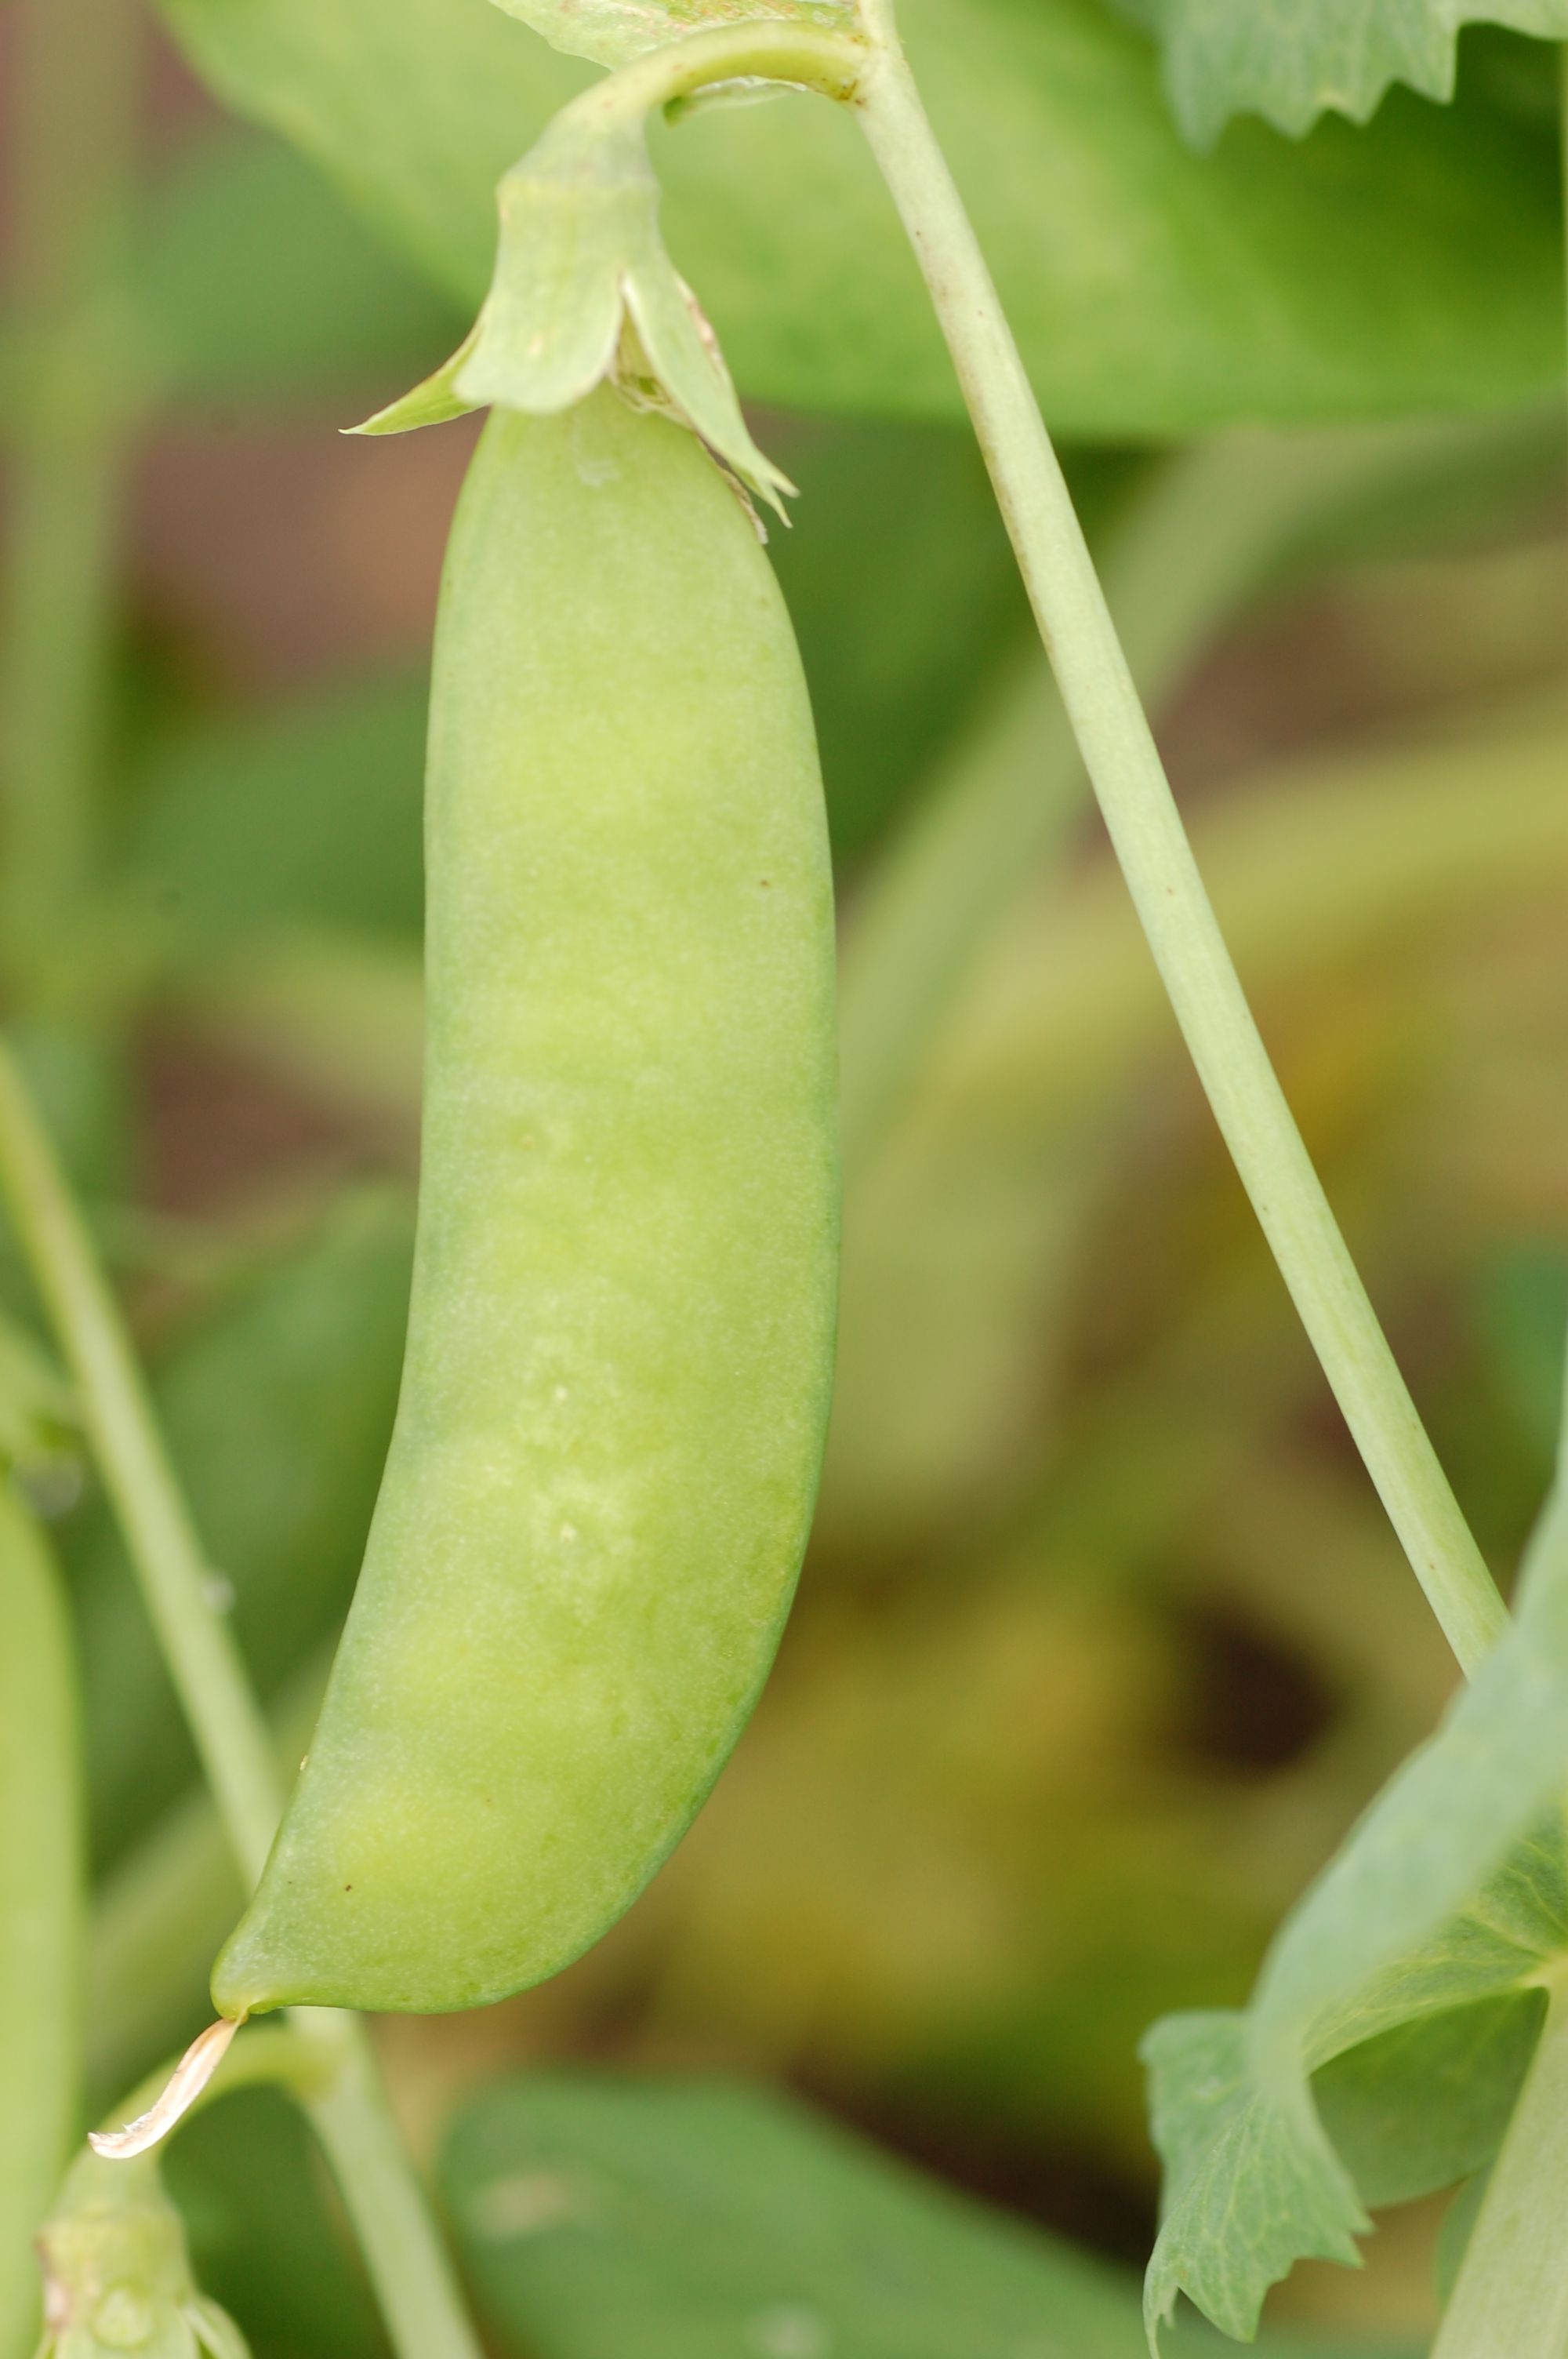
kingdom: Plantae
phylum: Tracheophyta
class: Magnoliopsida
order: Fabales
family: Fabaceae
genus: Lathyrus
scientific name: Lathyrus oleraceus
